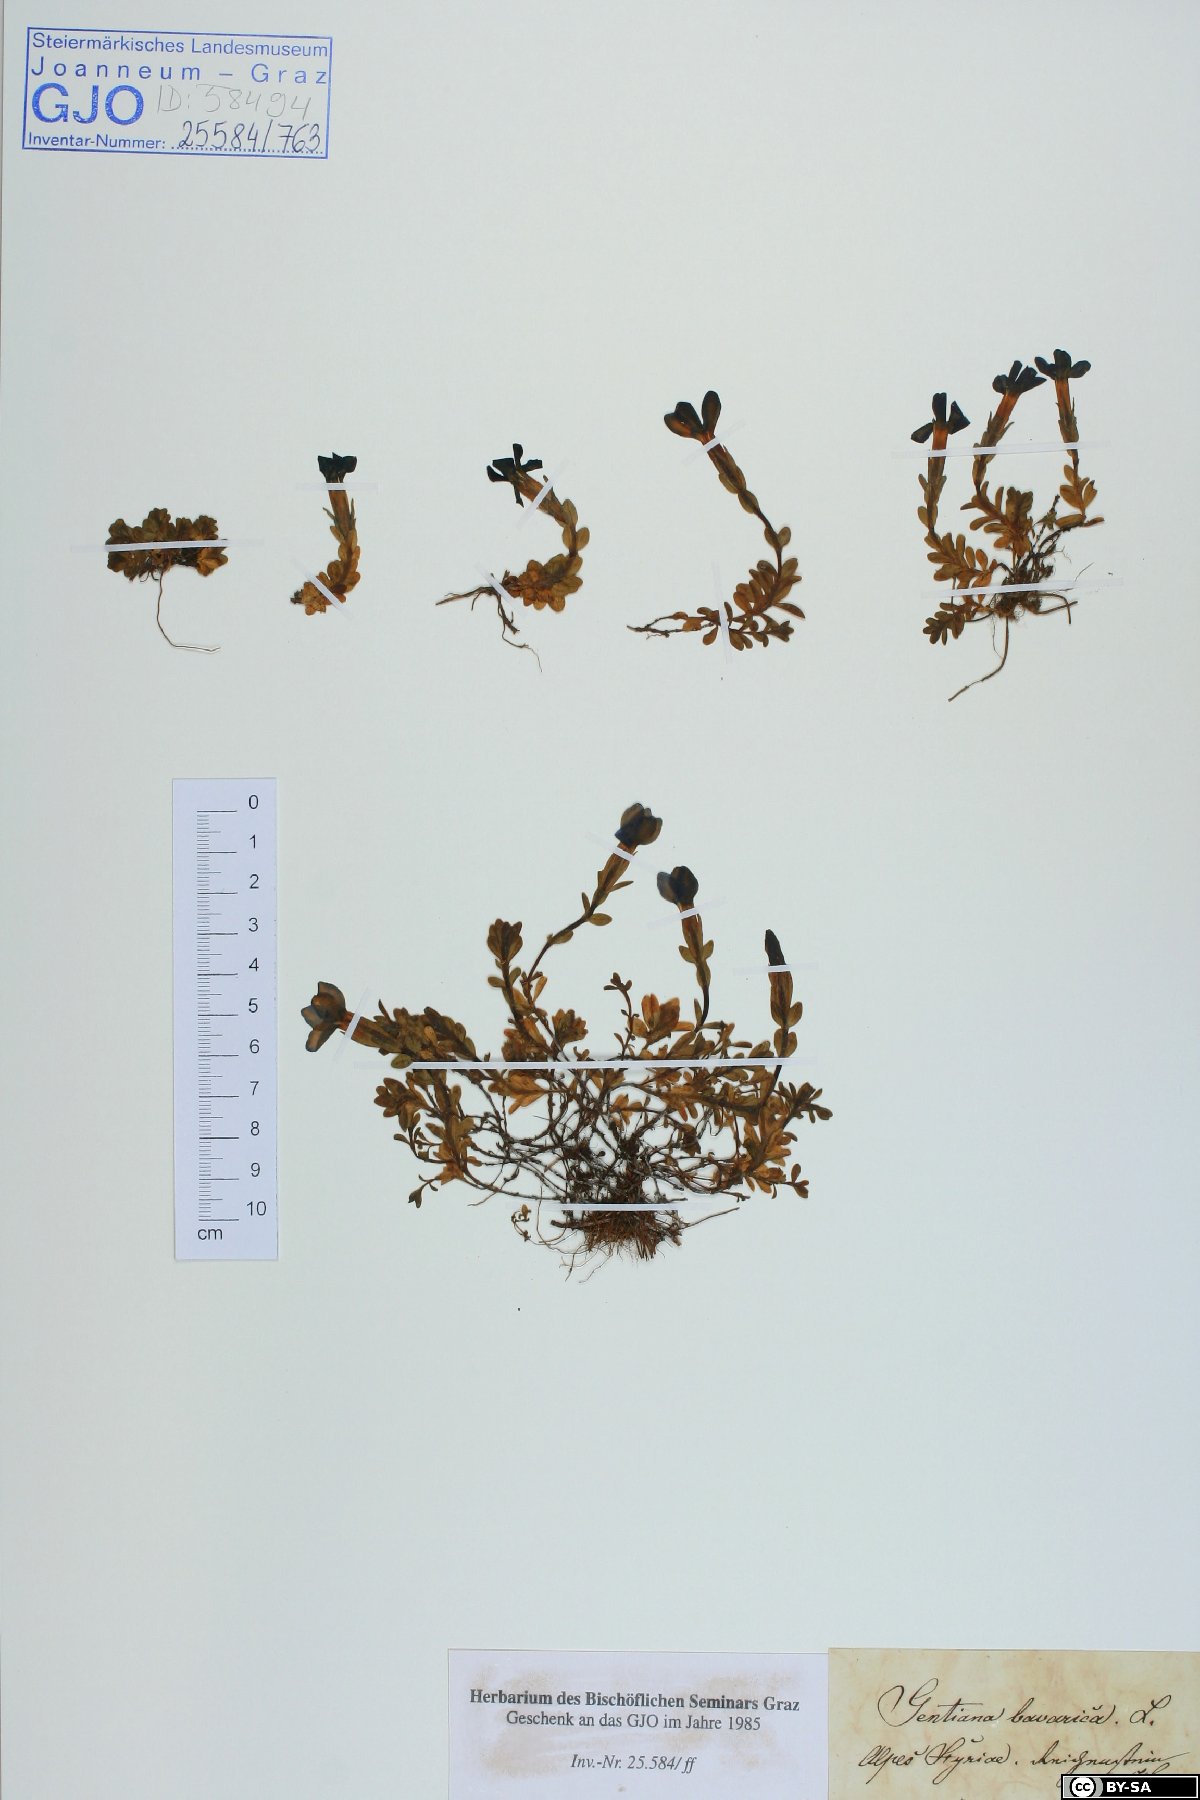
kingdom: Plantae
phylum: Tracheophyta
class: Magnoliopsida
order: Gentianales
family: Gentianaceae
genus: Gentiana
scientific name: Gentiana bavarica
